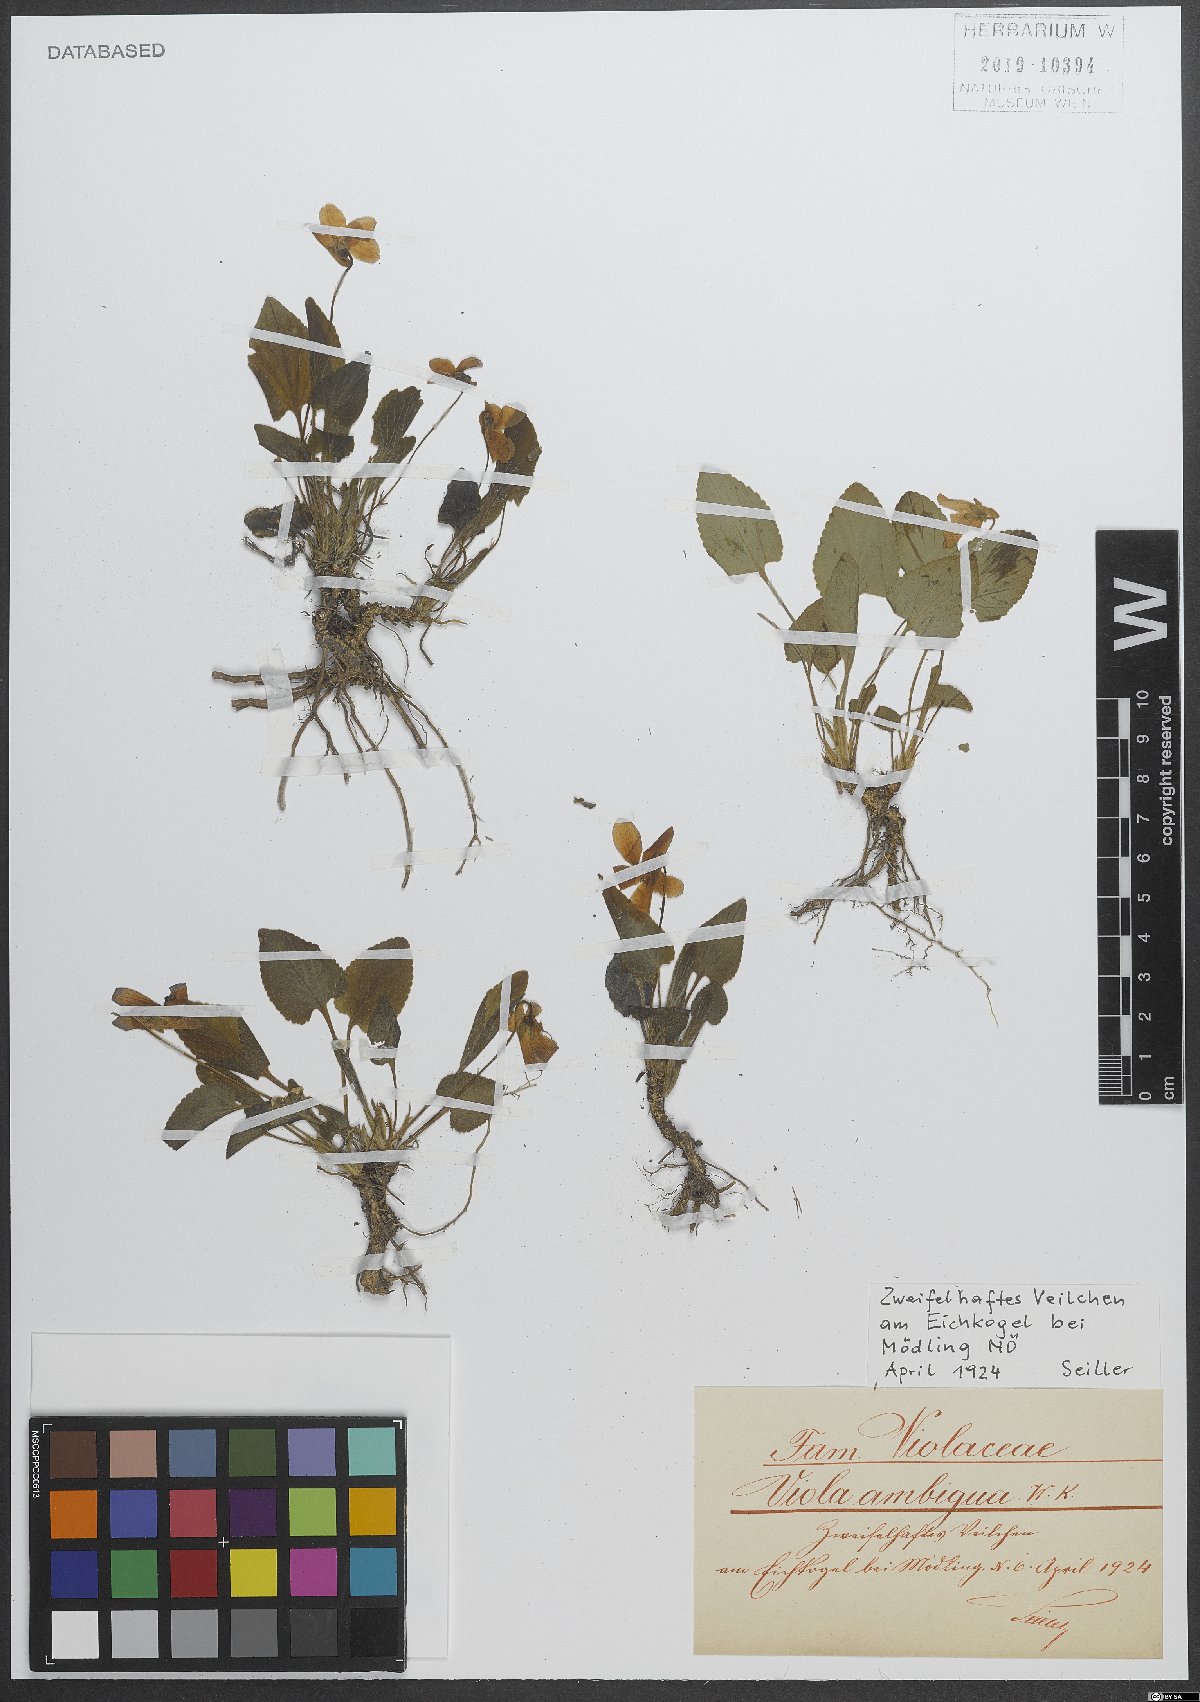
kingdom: Plantae
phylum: Tracheophyta
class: Magnoliopsida
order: Malpighiales
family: Violaceae
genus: Viola
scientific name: Viola ambigua
